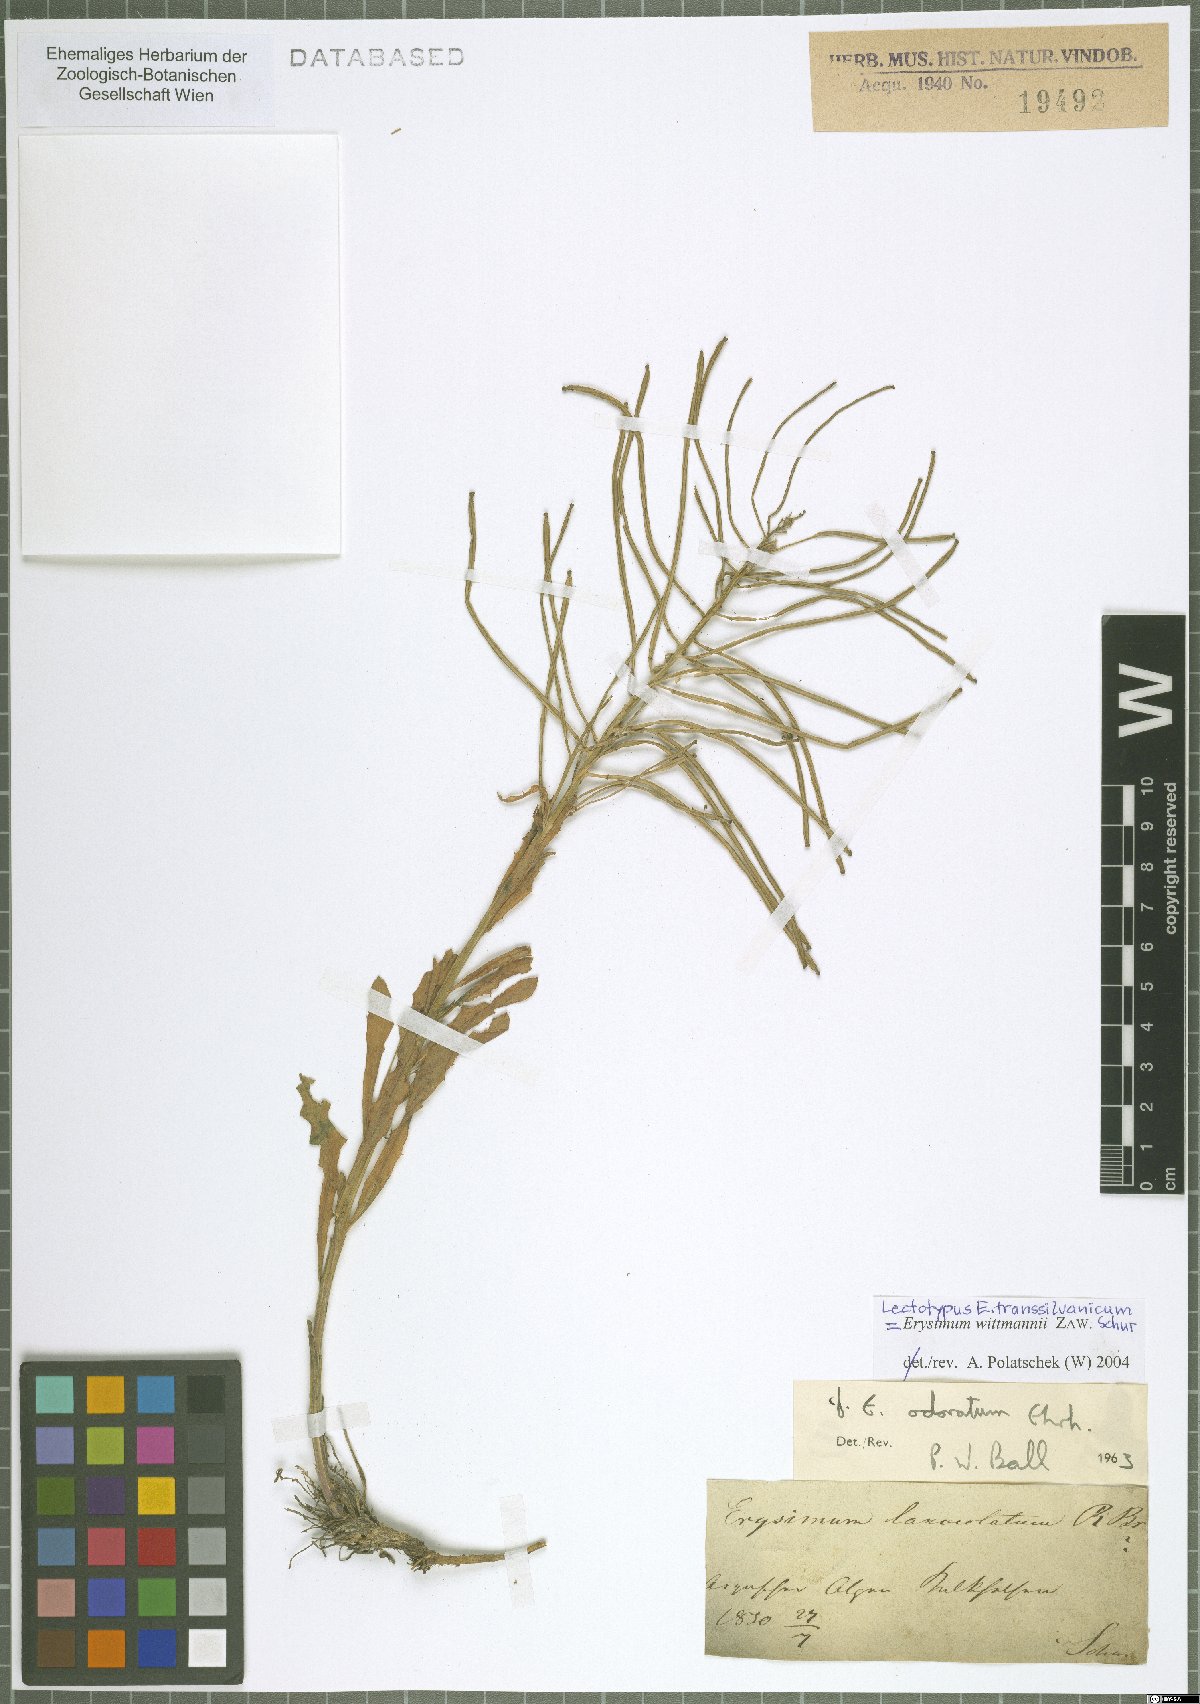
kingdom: Plantae
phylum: Tracheophyta
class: Magnoliopsida
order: Brassicales
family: Brassicaceae
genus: Erysimum
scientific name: Erysimum witmannii
